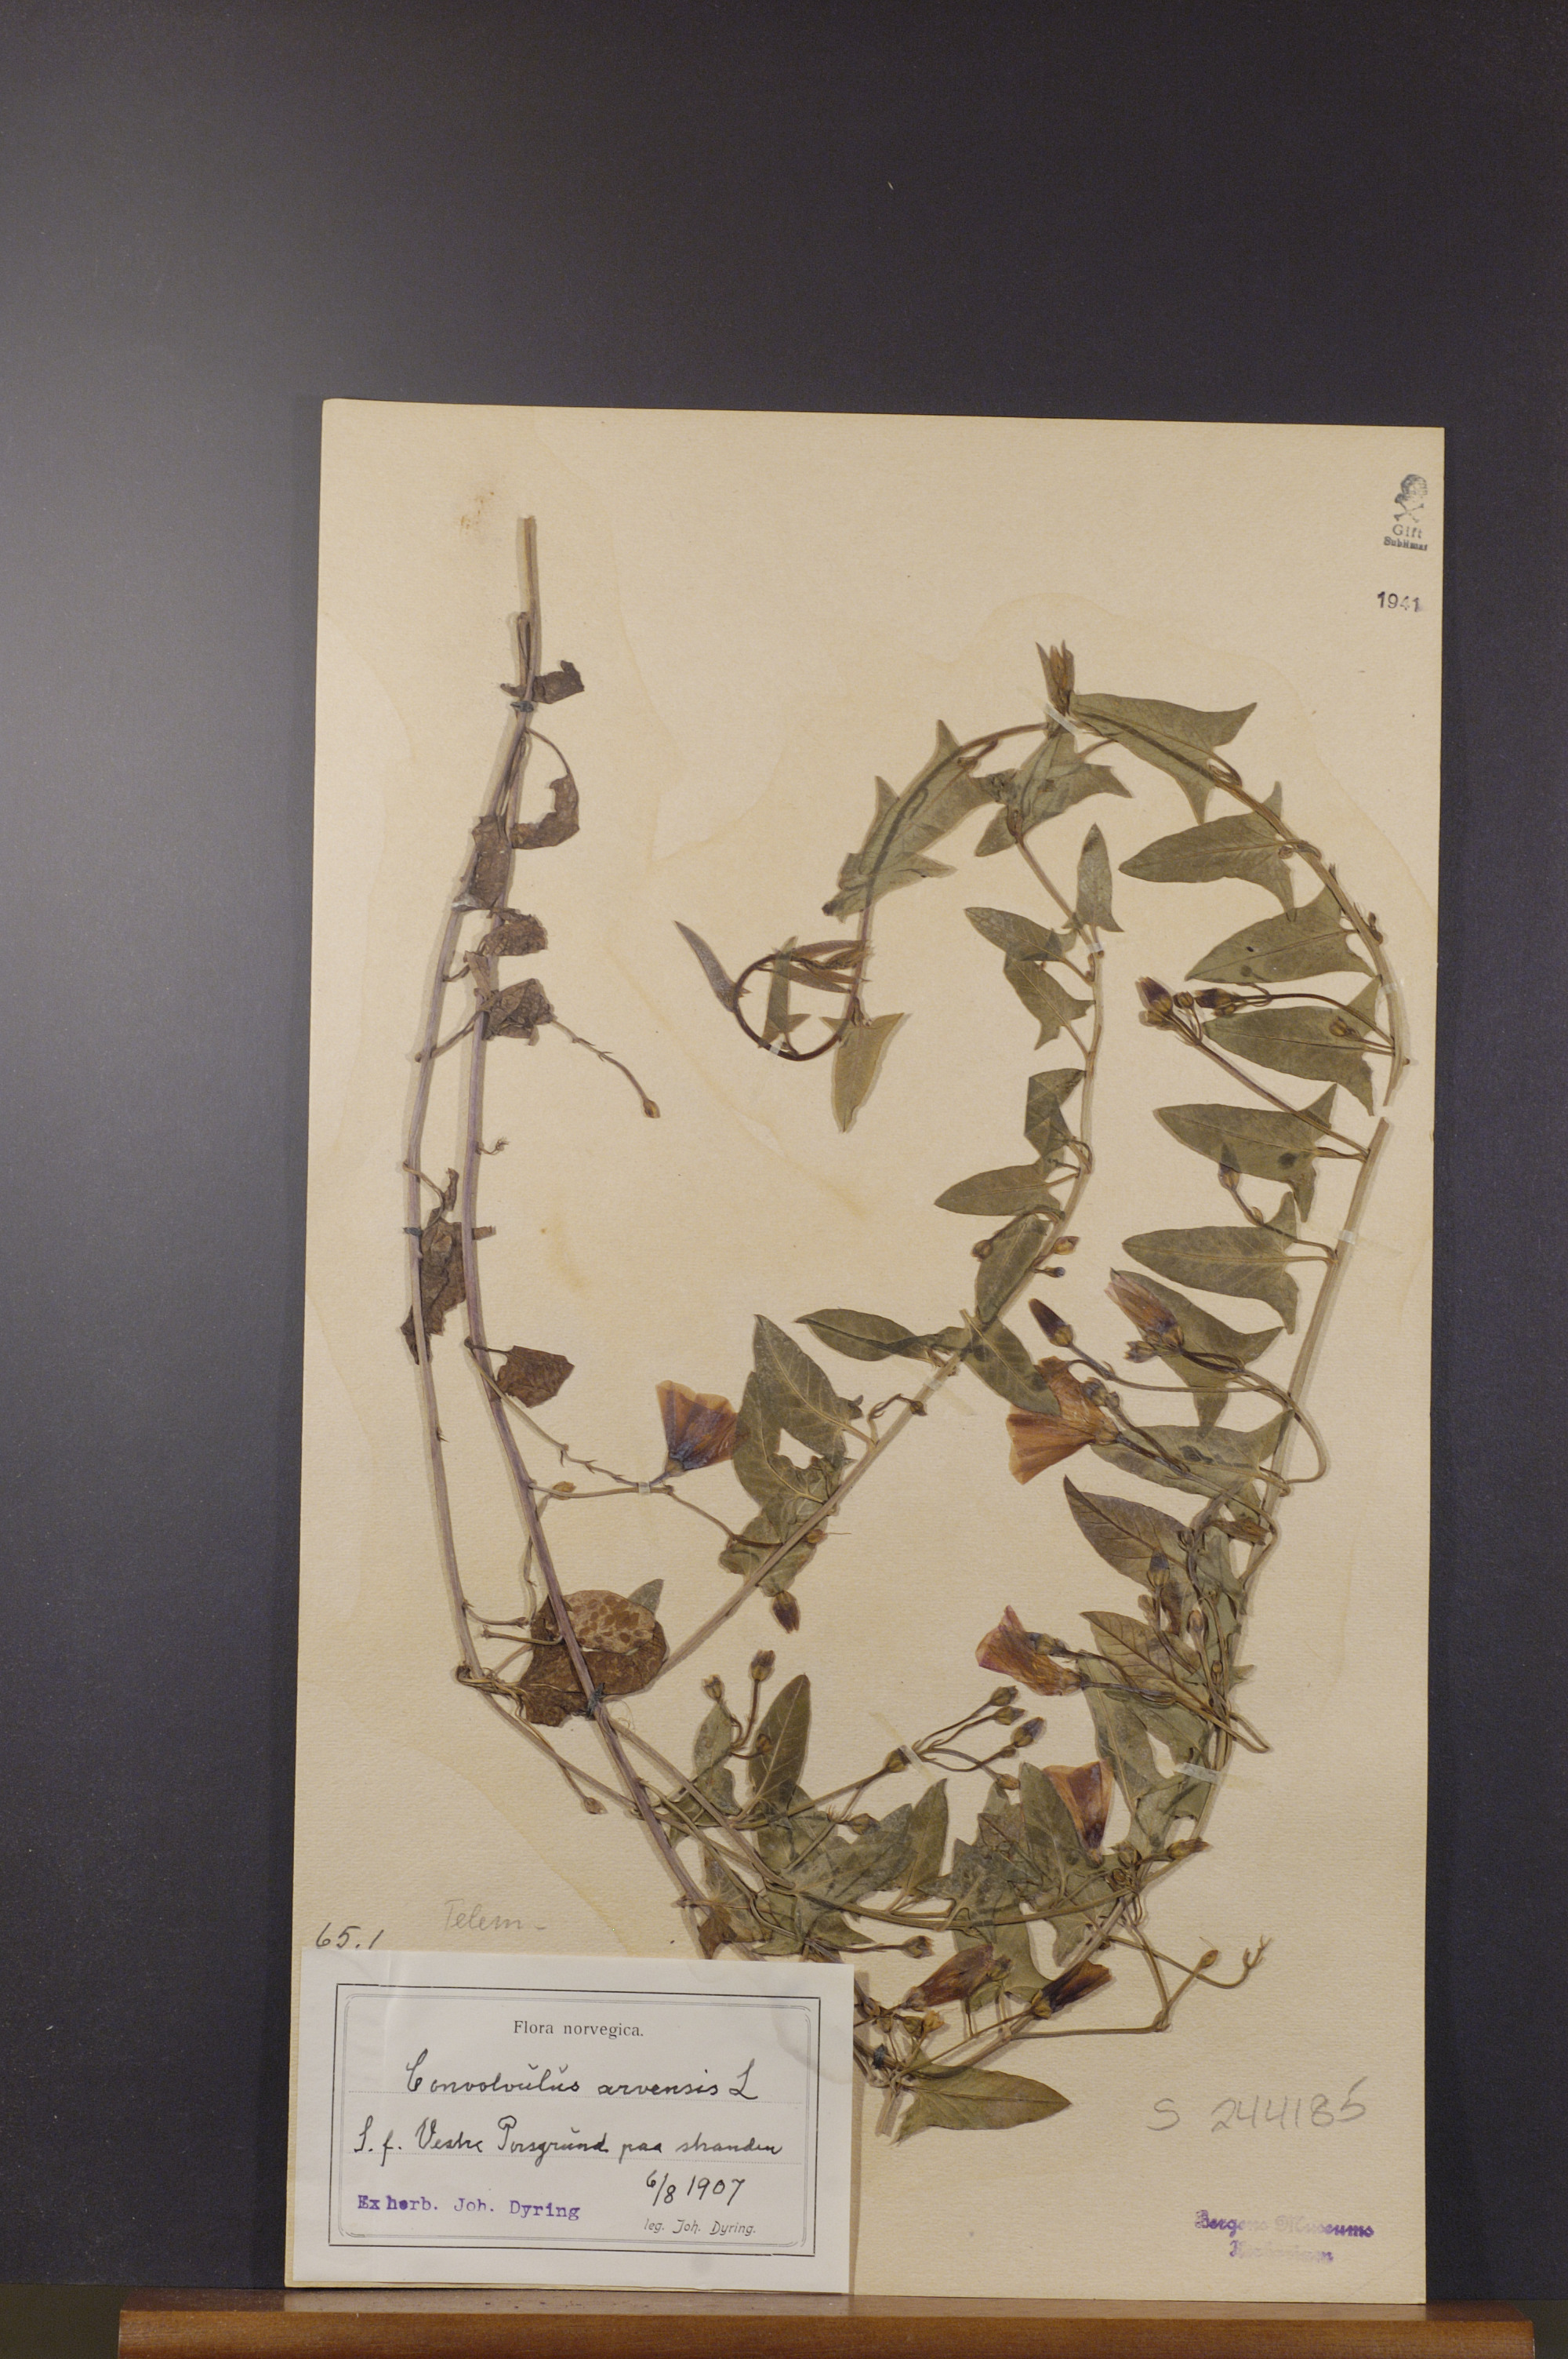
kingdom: Plantae
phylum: Tracheophyta
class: Magnoliopsida
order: Solanales
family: Convolvulaceae
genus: Convolvulus
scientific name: Convolvulus arvensis
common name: Field bindweed
